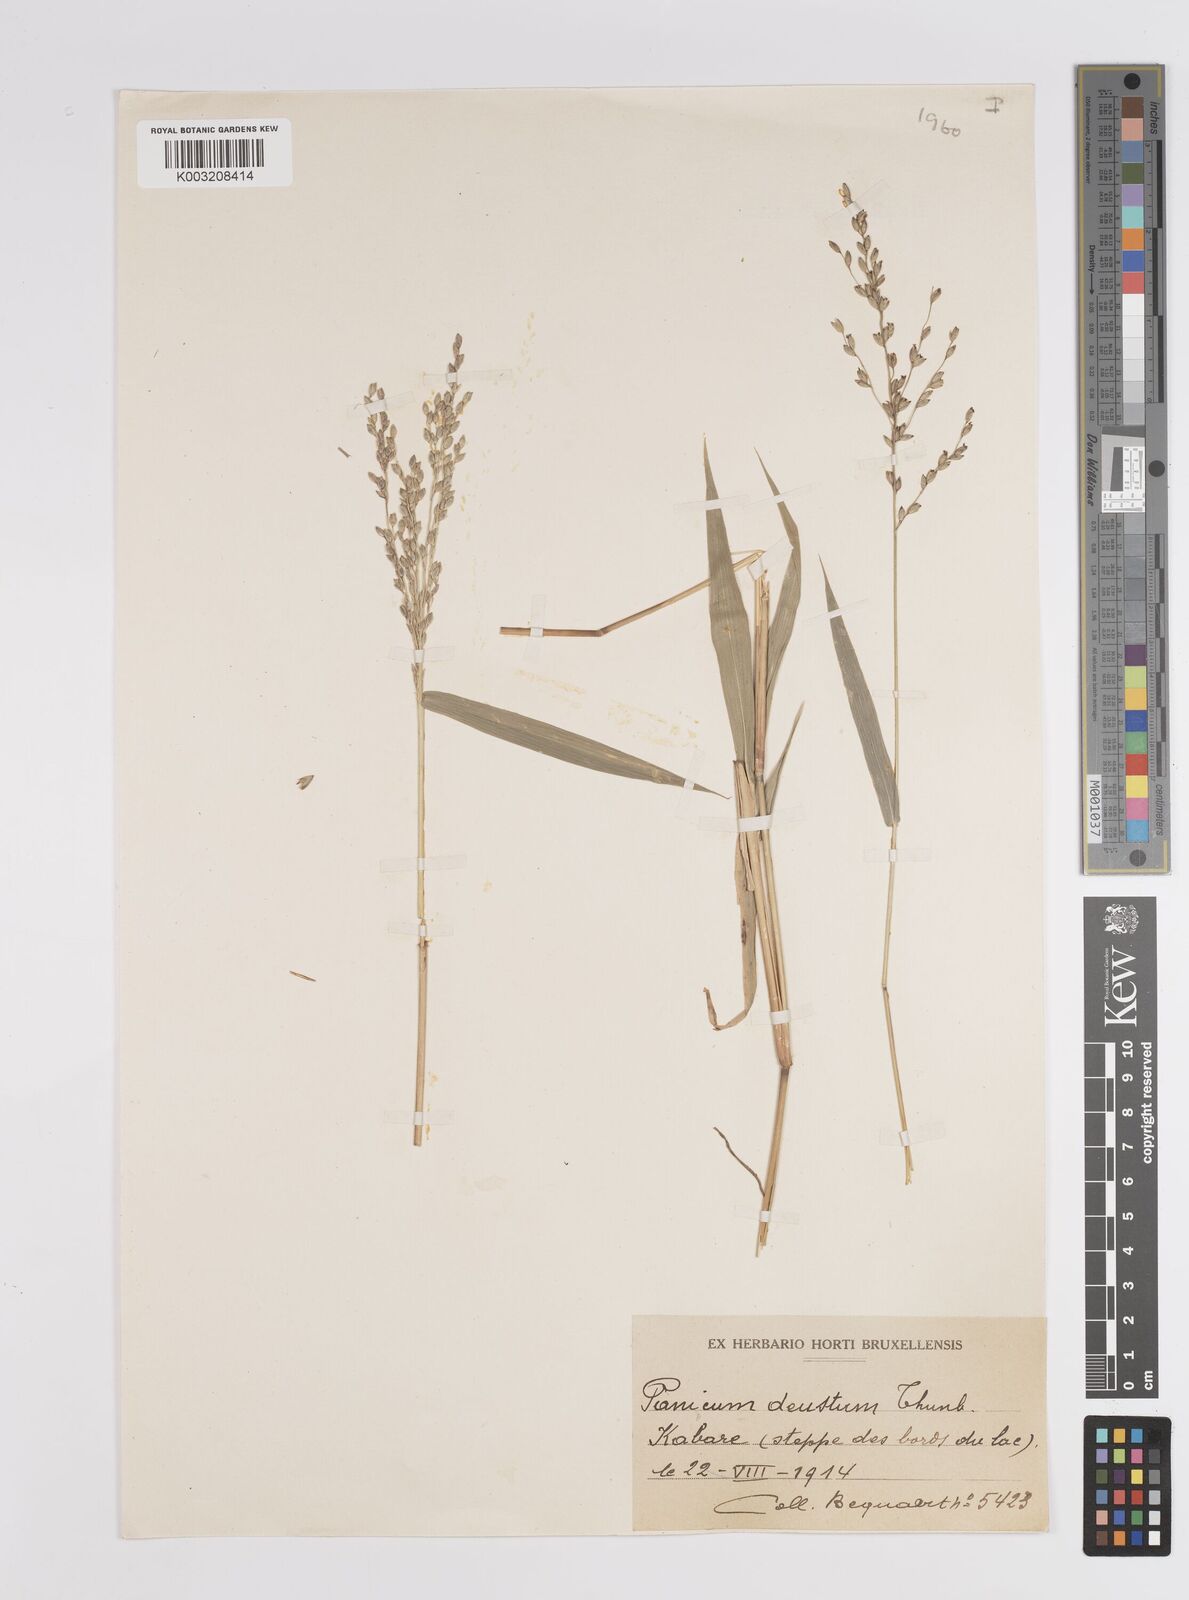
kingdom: Plantae
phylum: Tracheophyta
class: Liliopsida
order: Poales
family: Poaceae
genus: Panicum
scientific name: Panicum deustum
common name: Reed panicum
